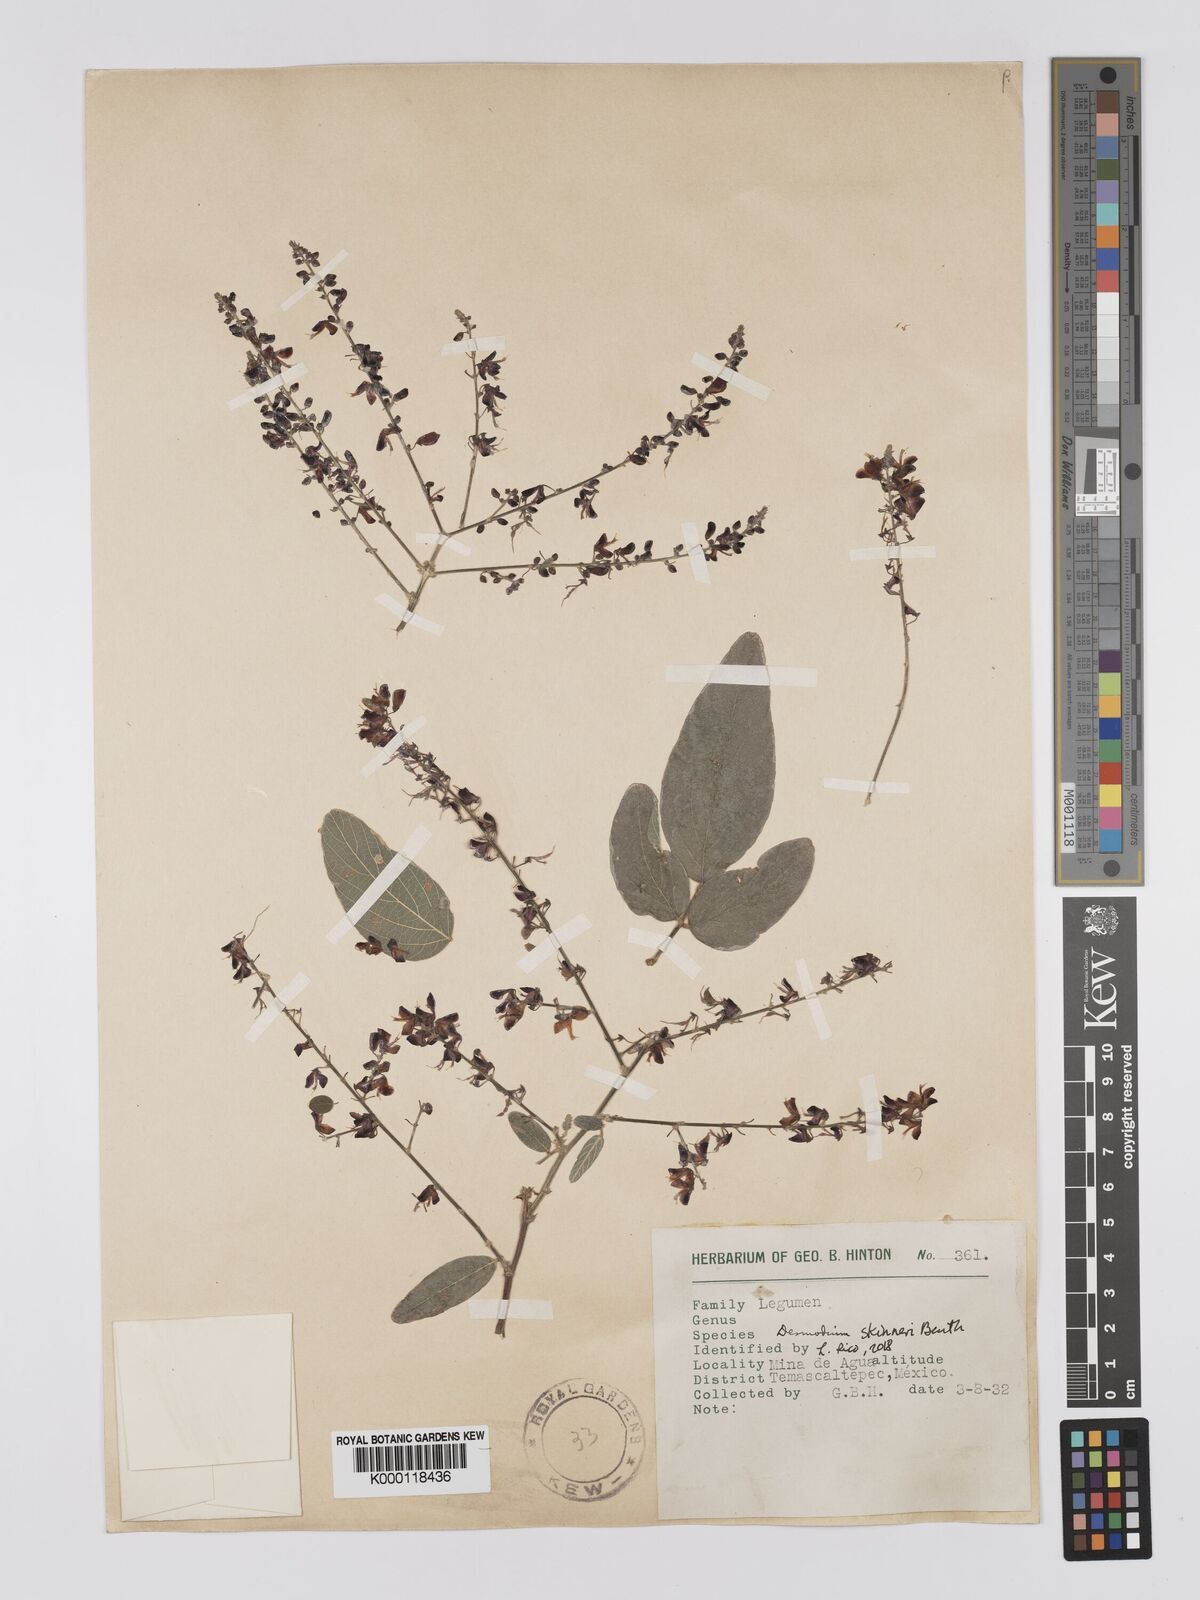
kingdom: Plantae
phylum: Tracheophyta
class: Magnoliopsida
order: Fabales
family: Fabaceae
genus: Desmodium
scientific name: Desmodium skinneri
